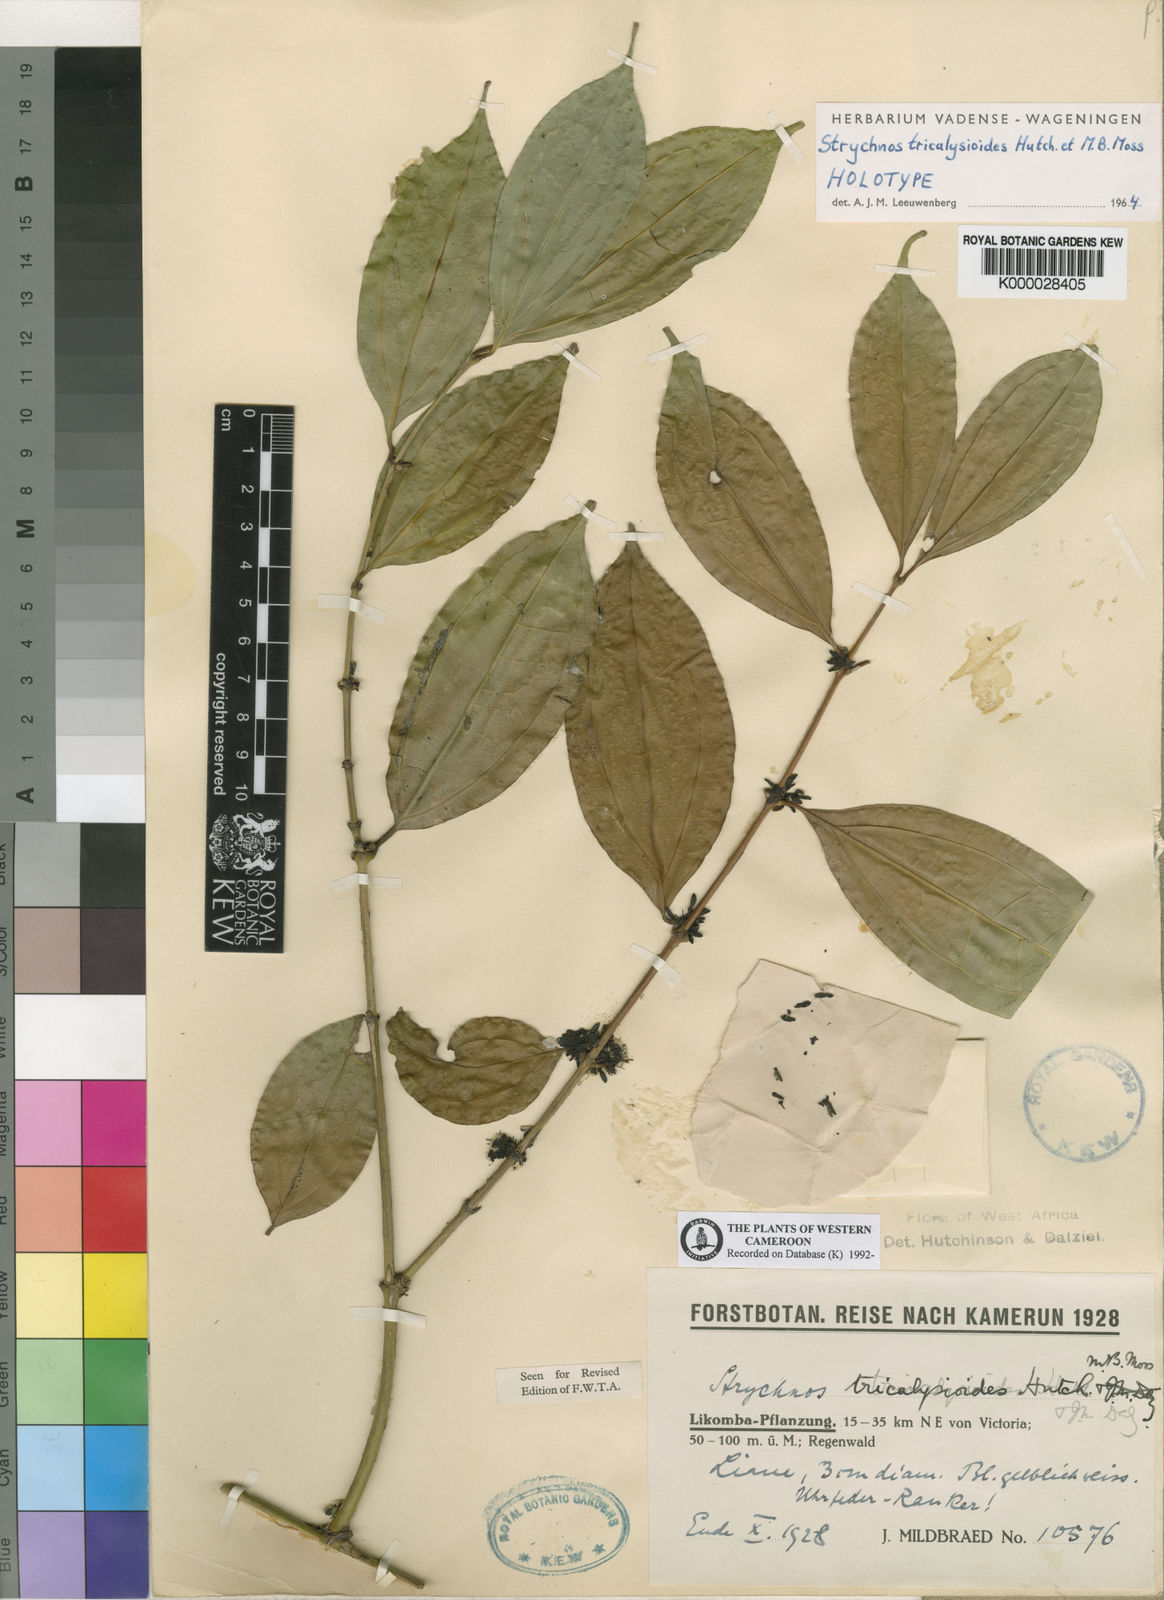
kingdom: Plantae
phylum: Tracheophyta
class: Magnoliopsida
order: Gentianales
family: Loganiaceae
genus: Strychnos
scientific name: Strychnos tricalysioides
